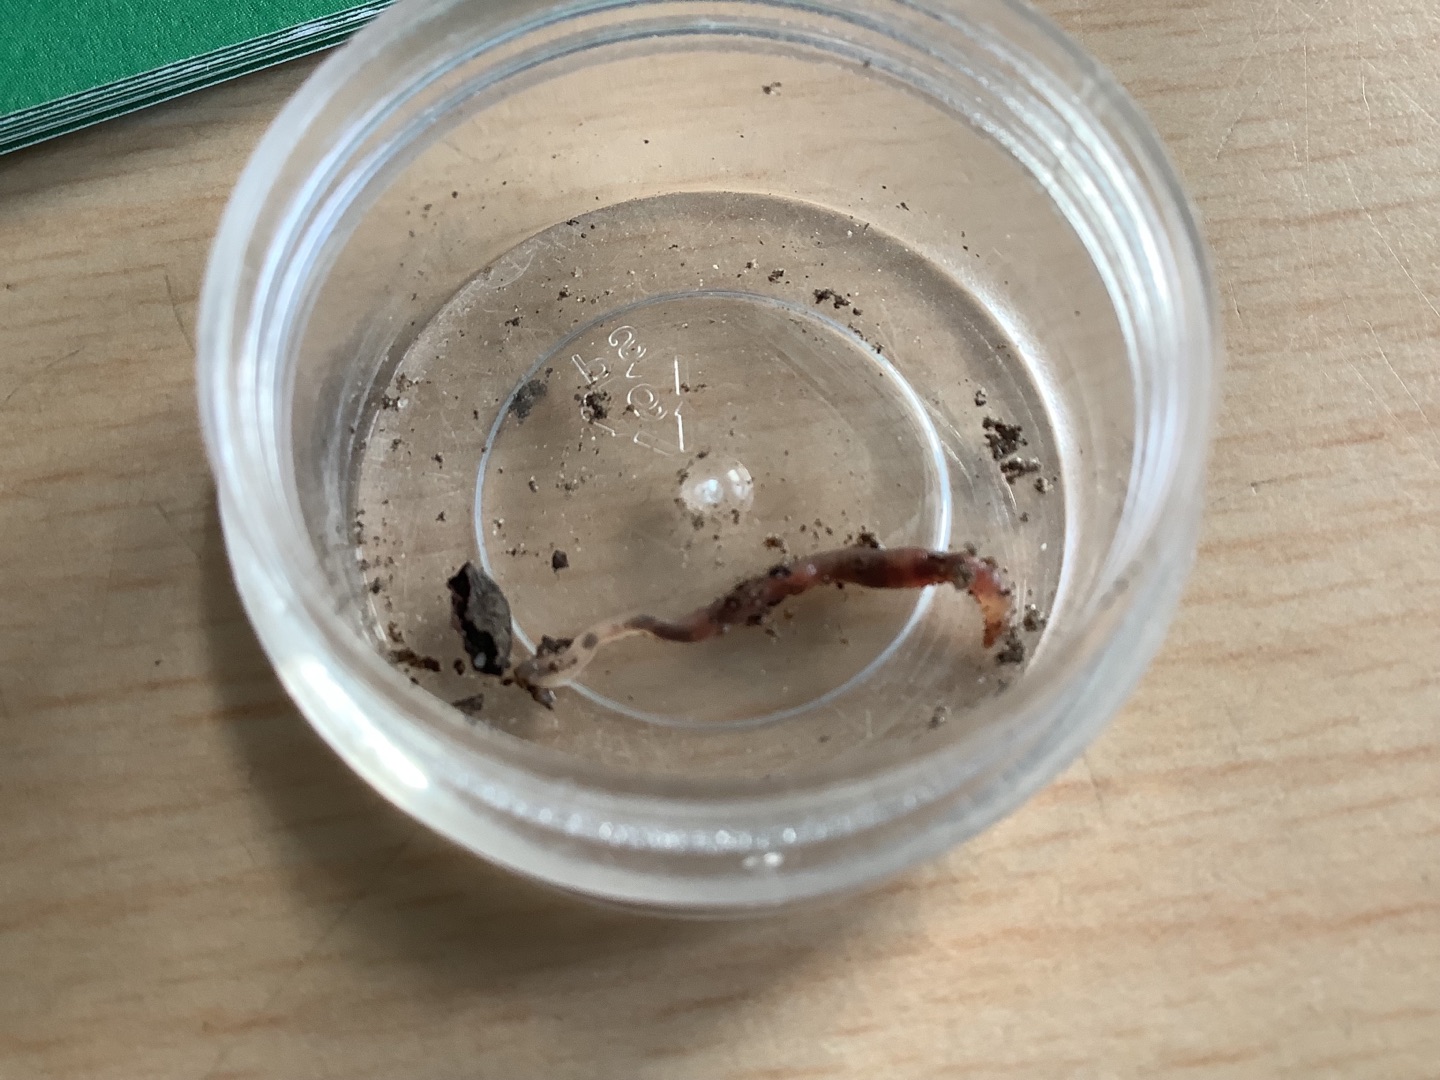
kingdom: Animalia
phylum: Annelida
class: Clitellata
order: Crassiclitellata
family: Lumbricidae
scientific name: Lumbricidae
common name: Regnorme
